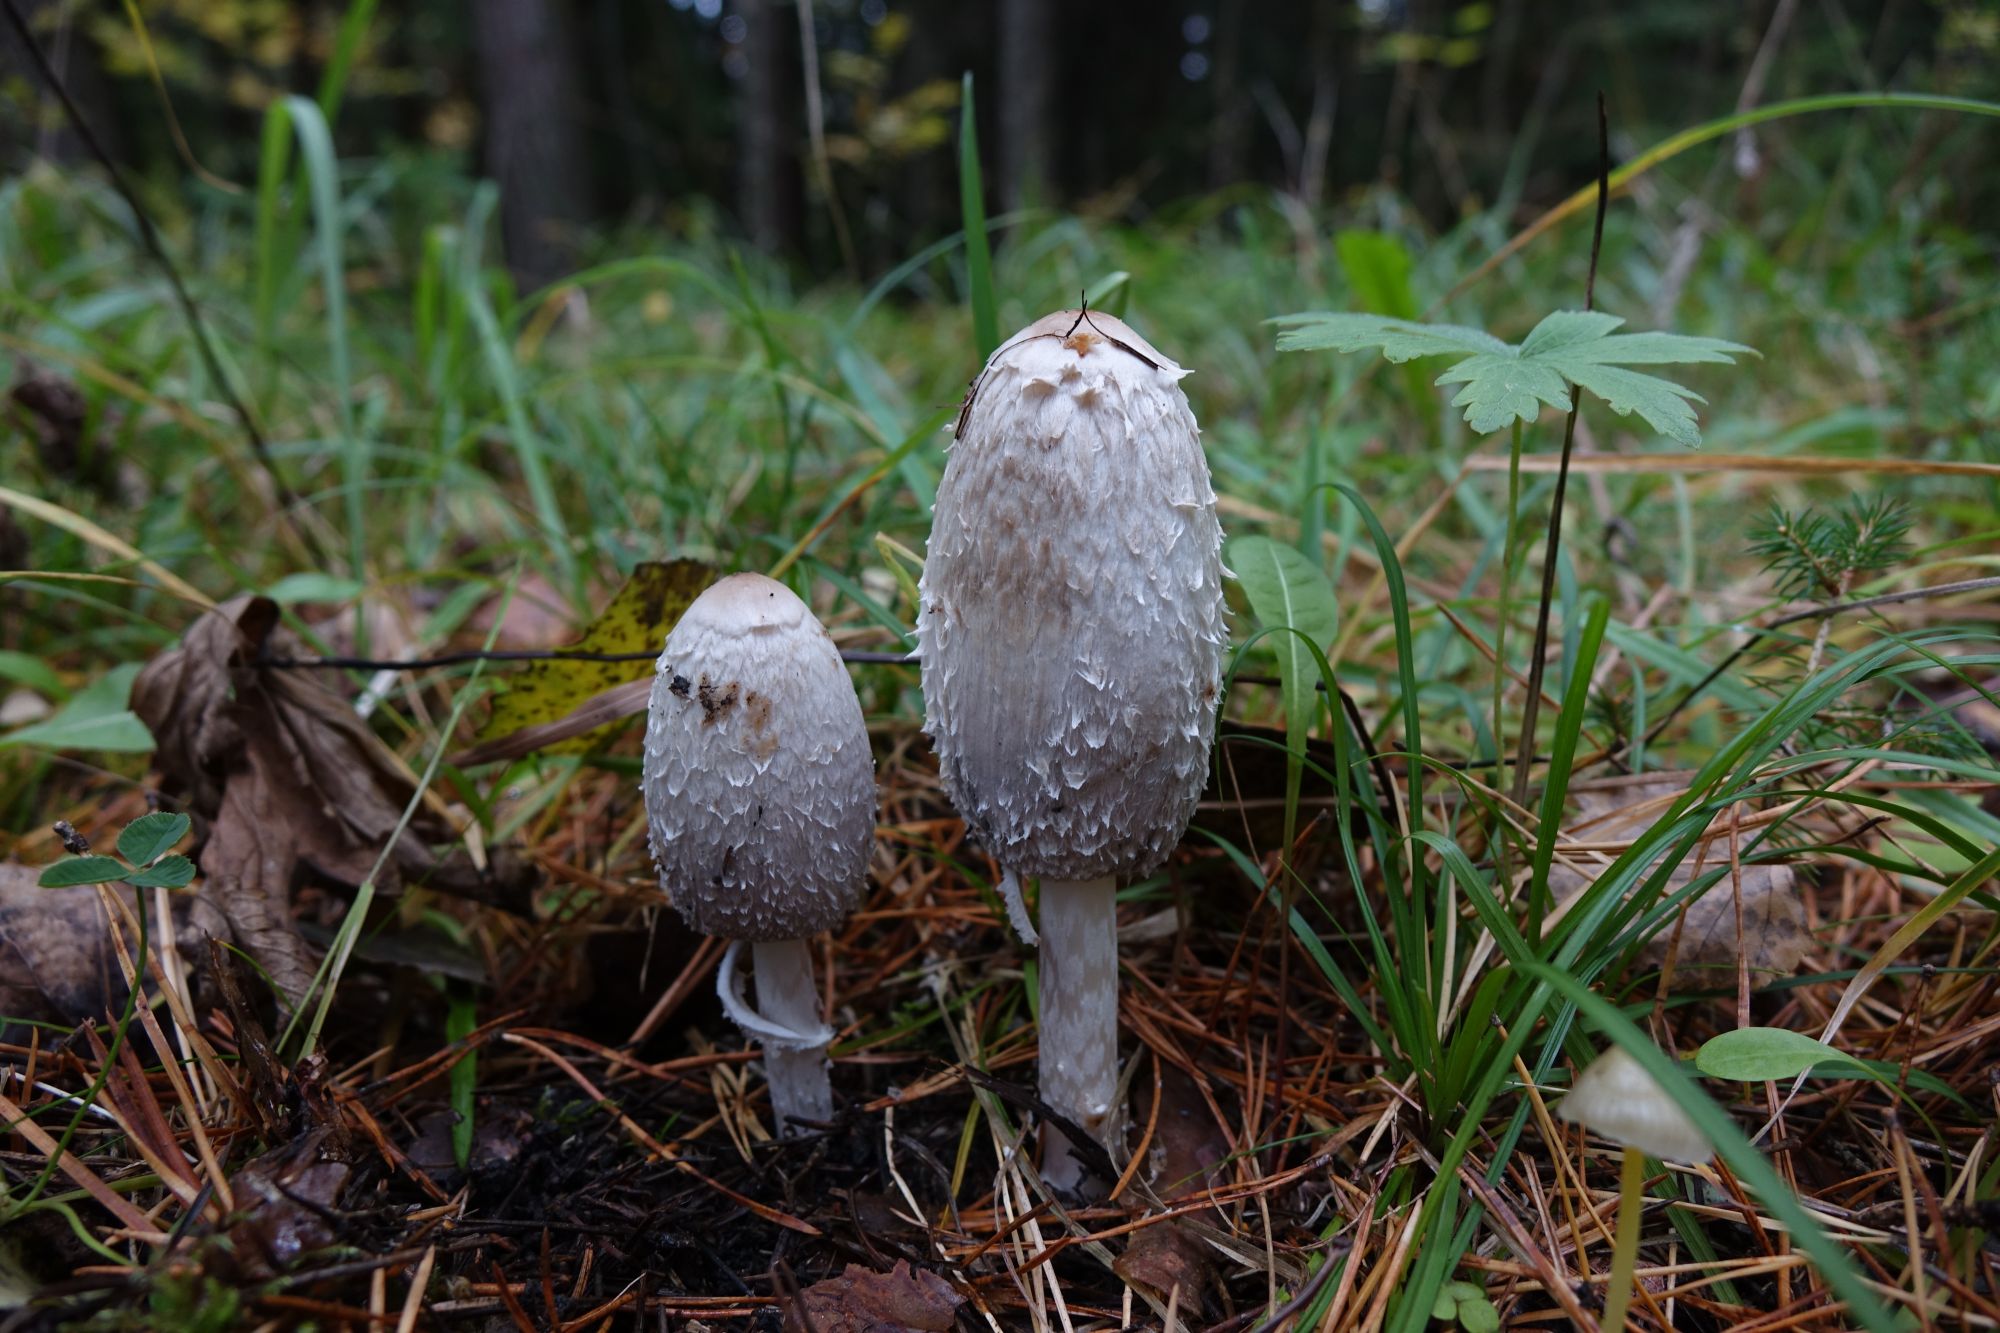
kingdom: Fungi
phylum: Basidiomycota
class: Agaricomycetes
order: Agaricales
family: Agaricaceae
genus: Coprinus
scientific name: Coprinus comatus
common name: Lawyer's wig
